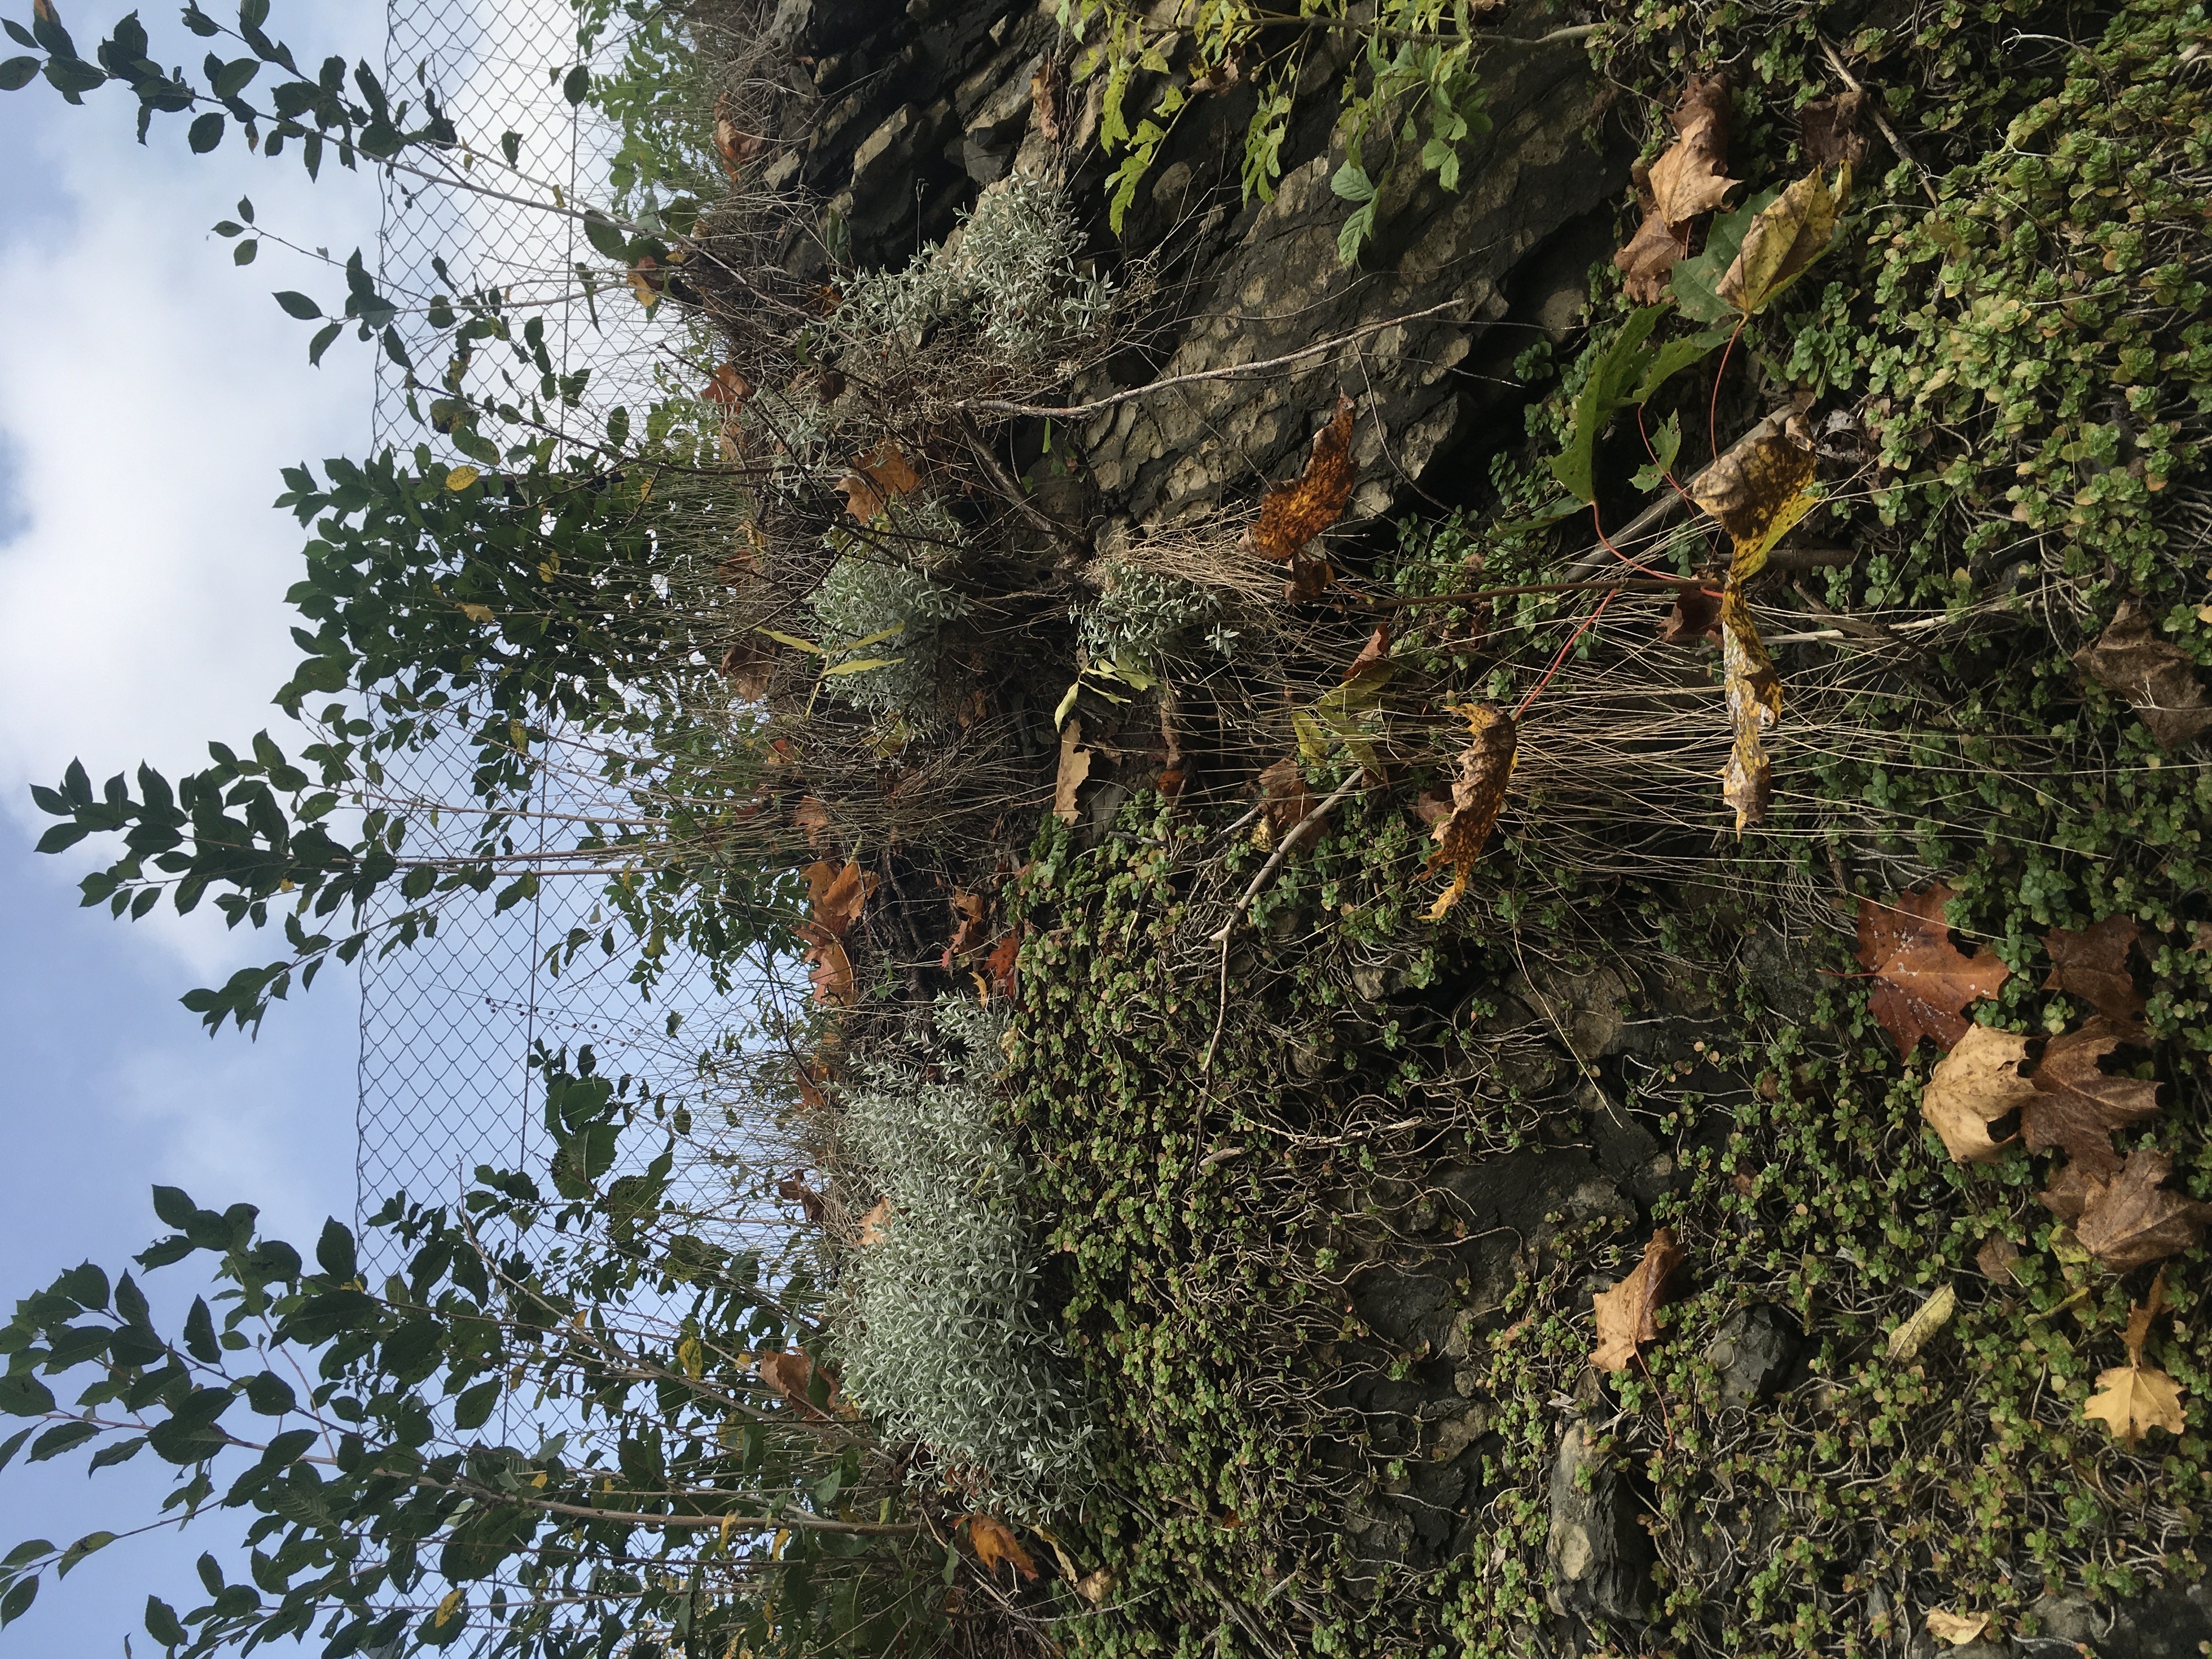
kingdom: Plantae
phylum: Tracheophyta
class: Magnoliopsida
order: Caryophyllales
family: Caryophyllaceae
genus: Cerastium
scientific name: Cerastium tomentosum
